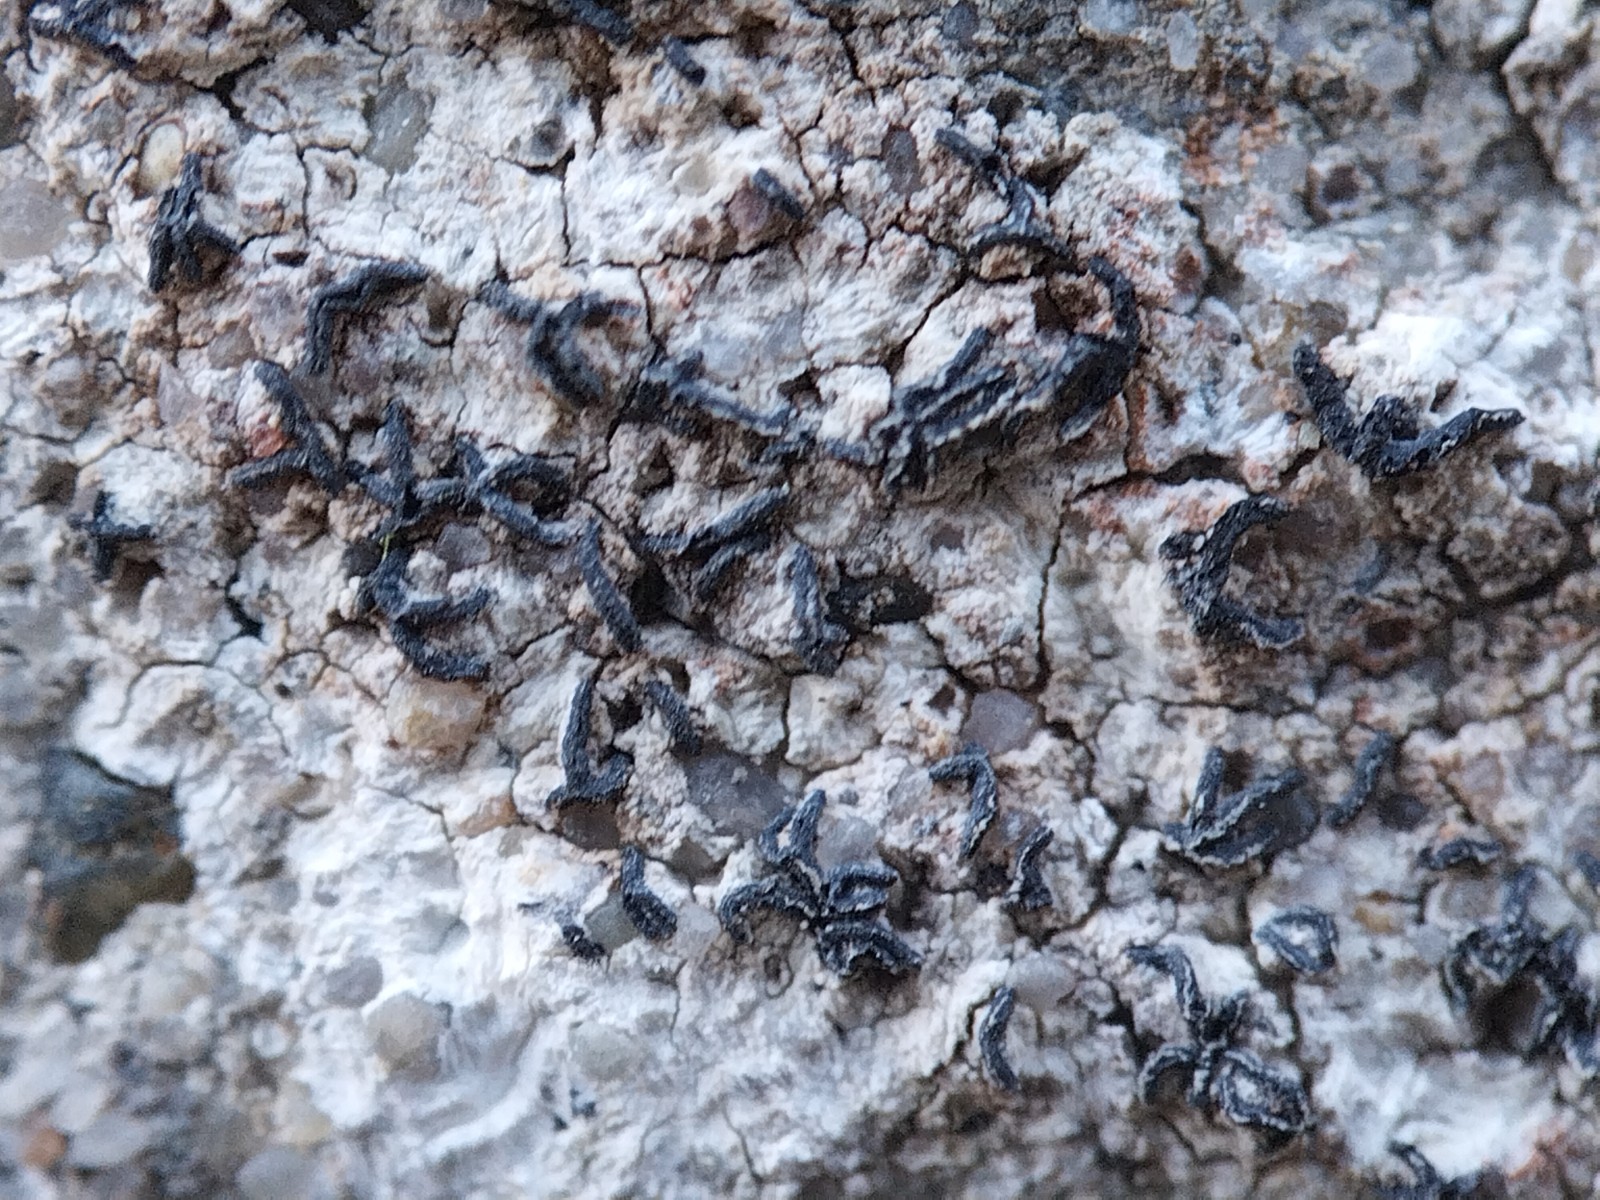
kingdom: Fungi
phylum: Ascomycota
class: Arthoniomycetes
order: Arthoniales
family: Arthoniaceae
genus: Arthonia
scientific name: Arthonia calcarea
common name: kalk-bogstavlav
